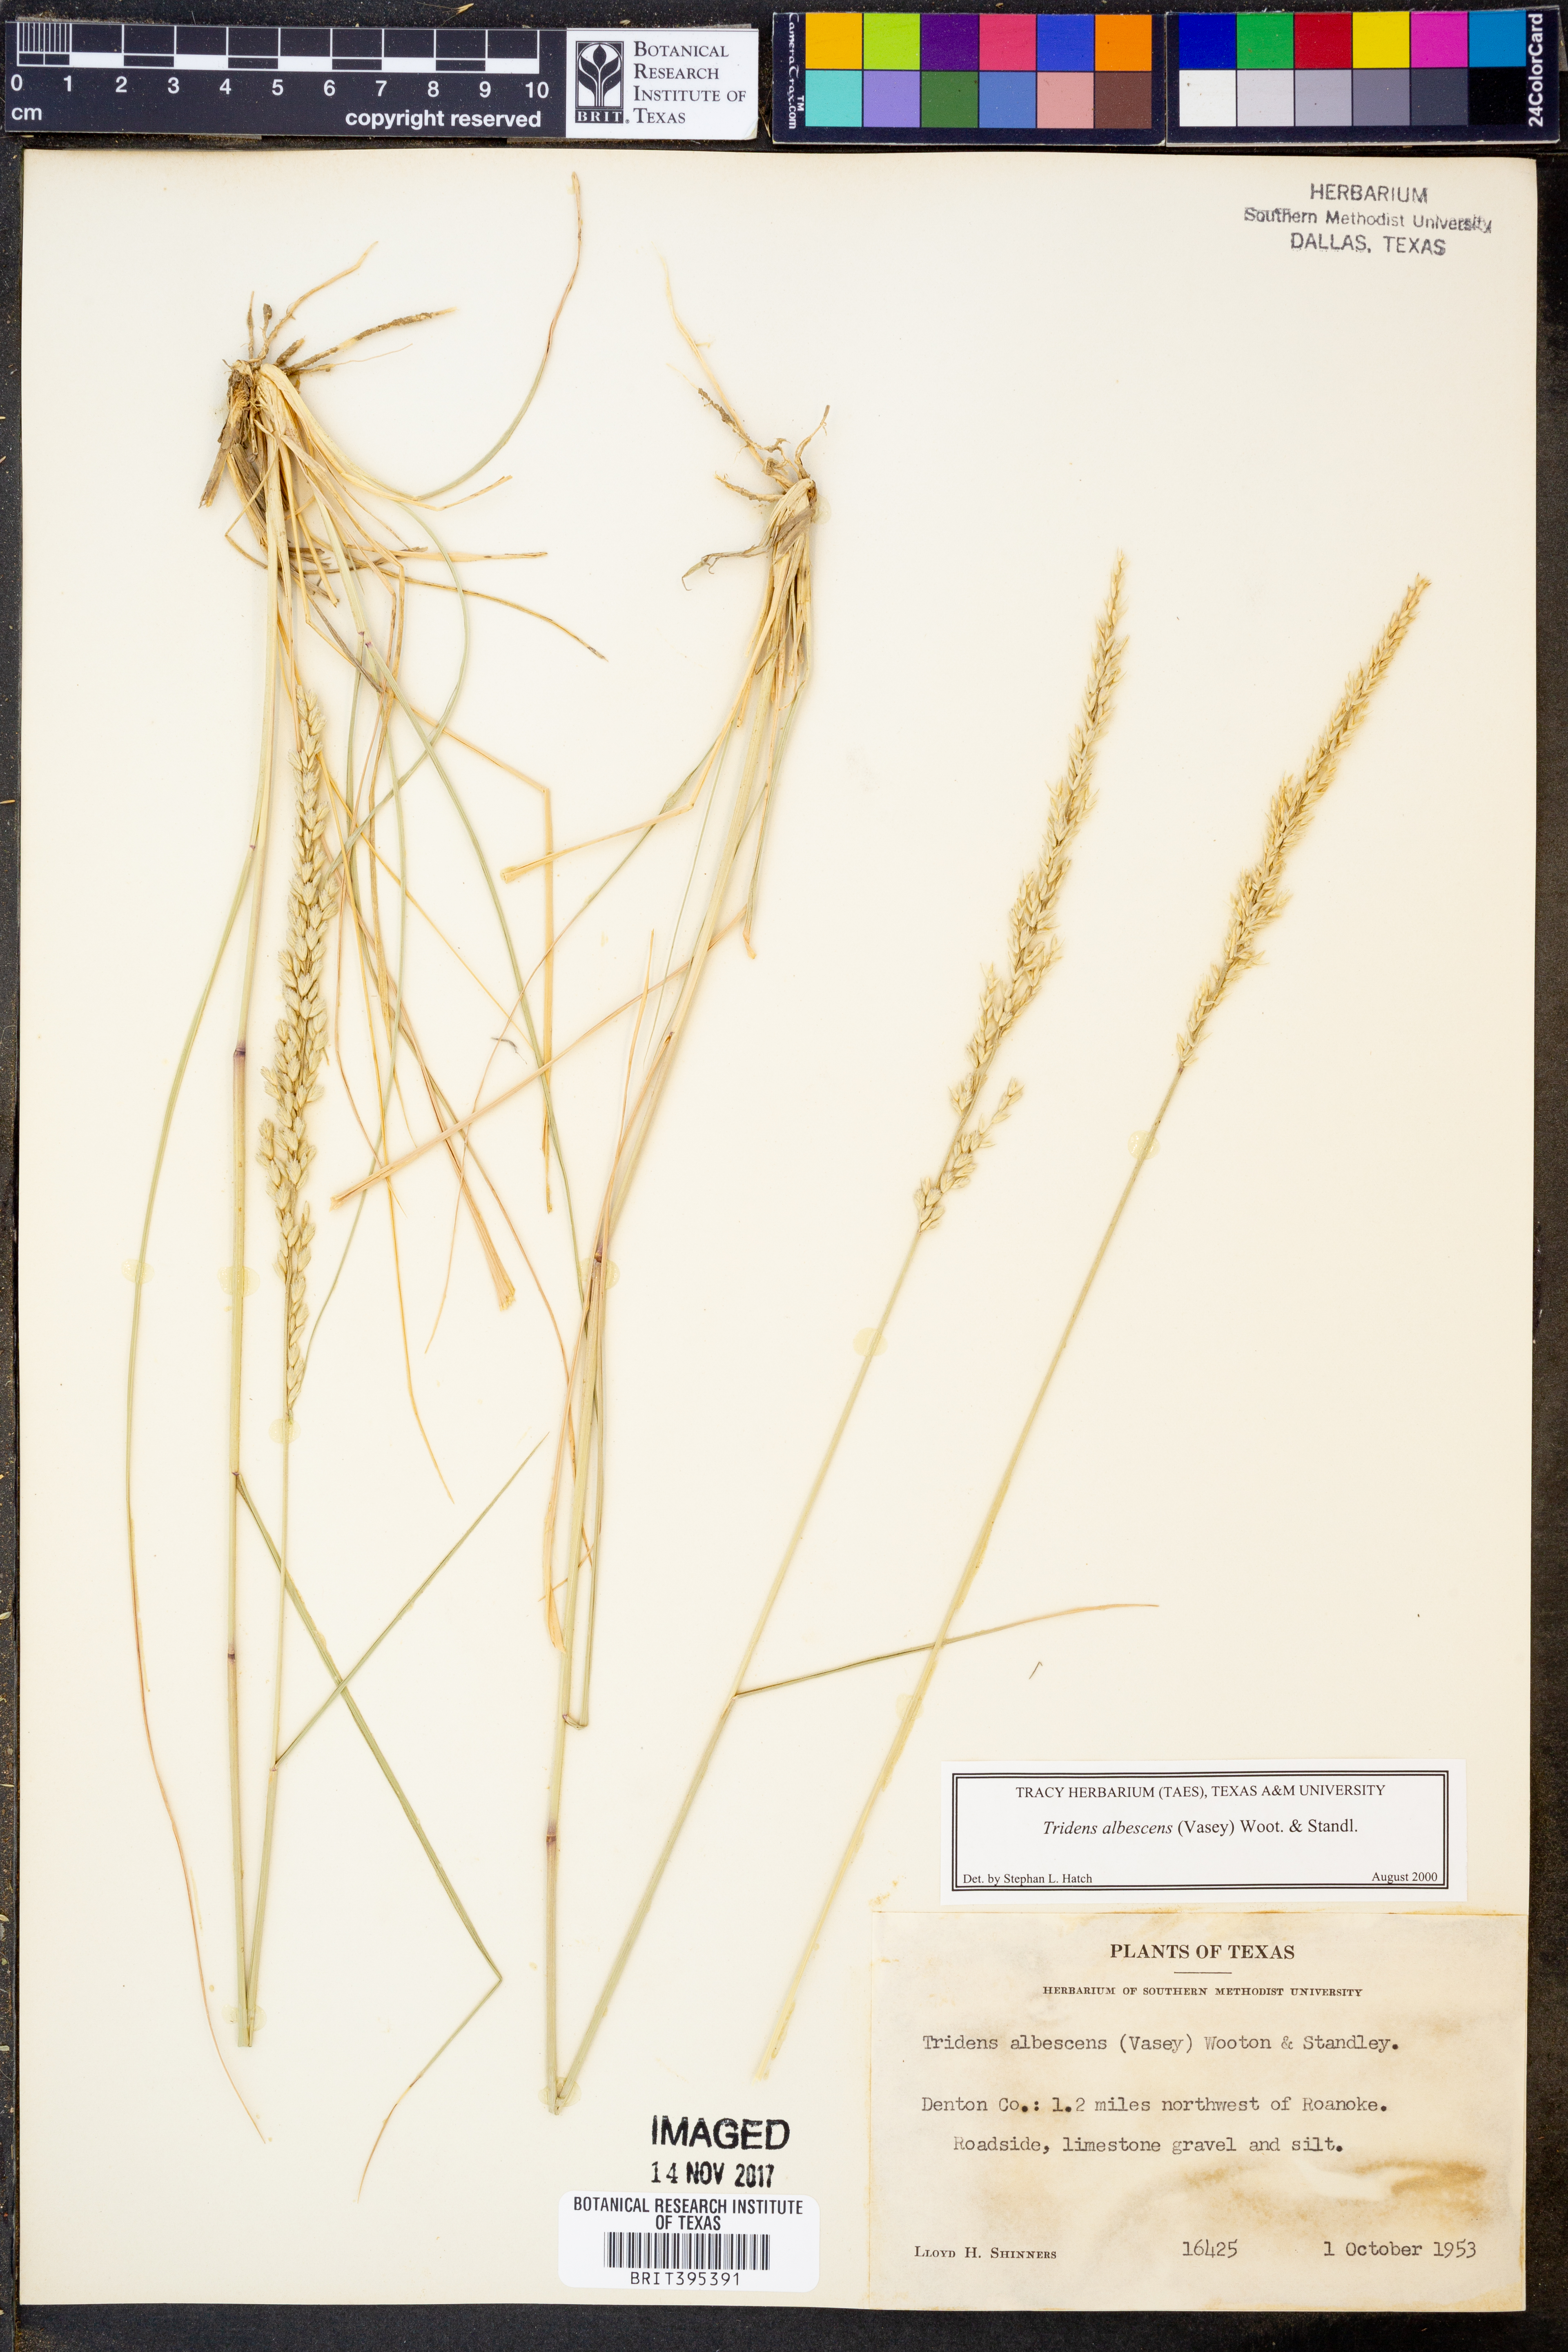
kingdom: Plantae
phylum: Tracheophyta
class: Liliopsida
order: Poales
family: Poaceae
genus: Tridens
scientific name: Tridens albescens
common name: White tridens
